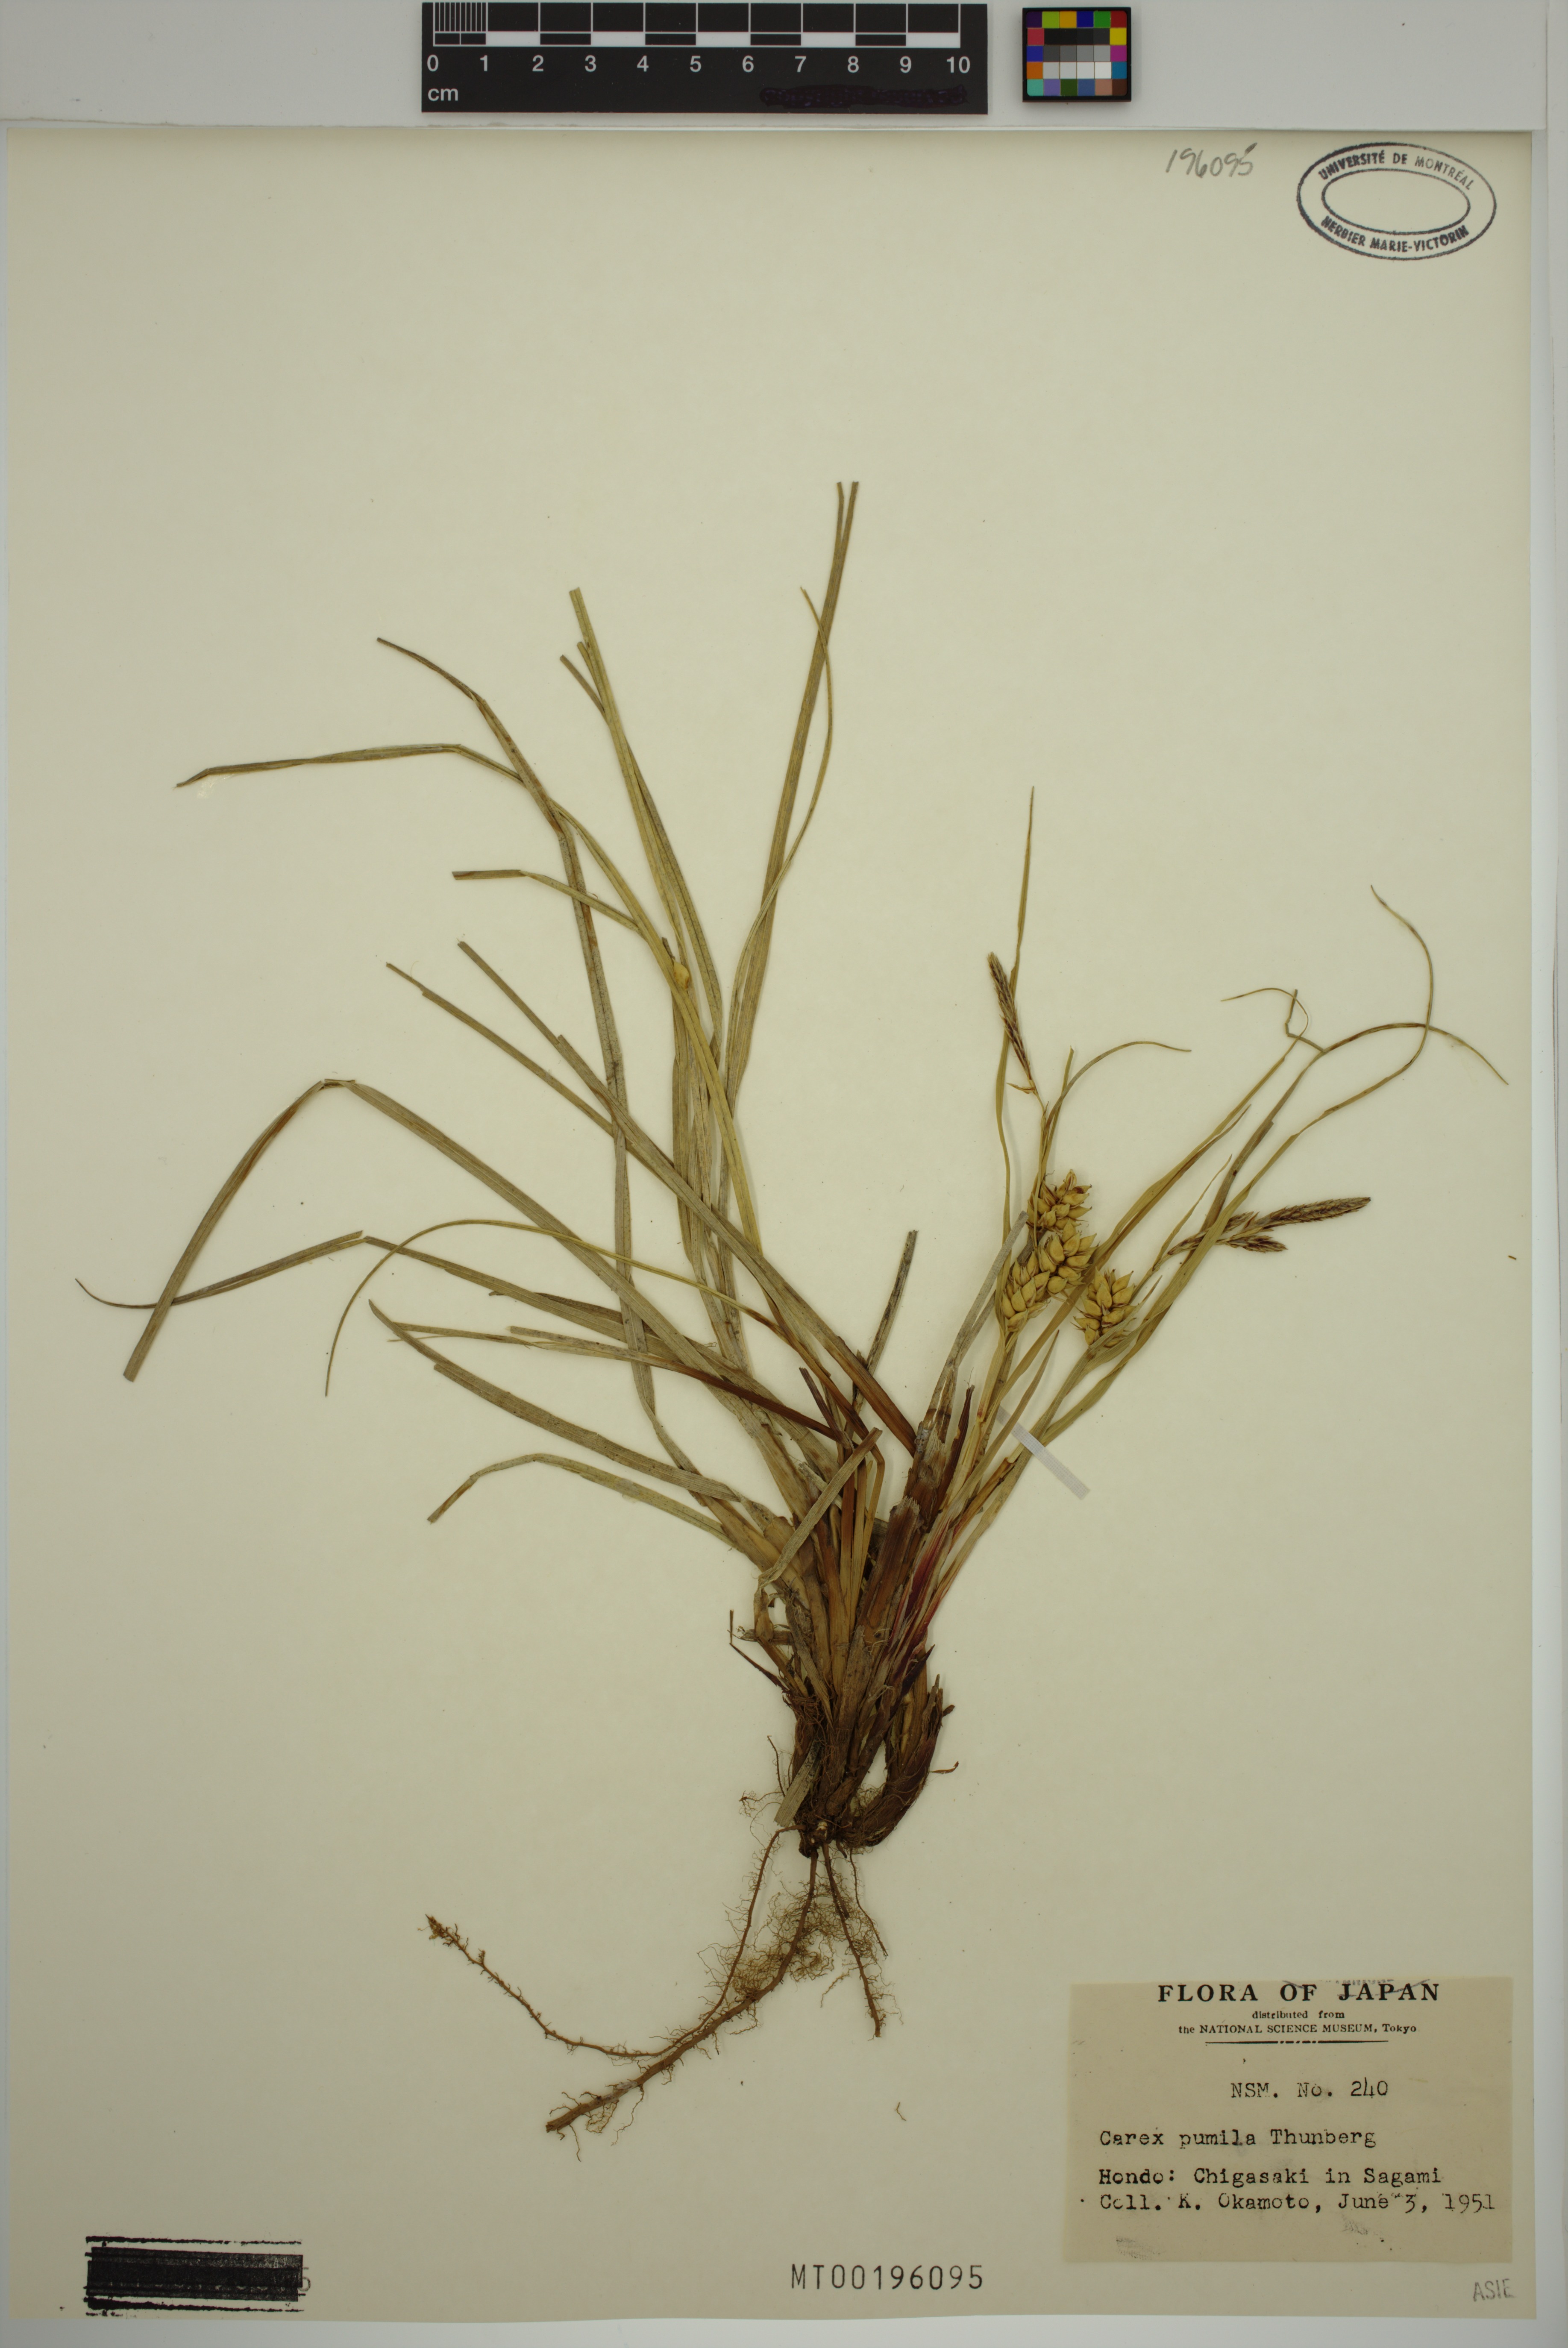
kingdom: Plantae
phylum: Tracheophyta
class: Liliopsida
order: Poales
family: Cyperaceae
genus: Carex
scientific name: Carex pumila
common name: Dwarf sedge
